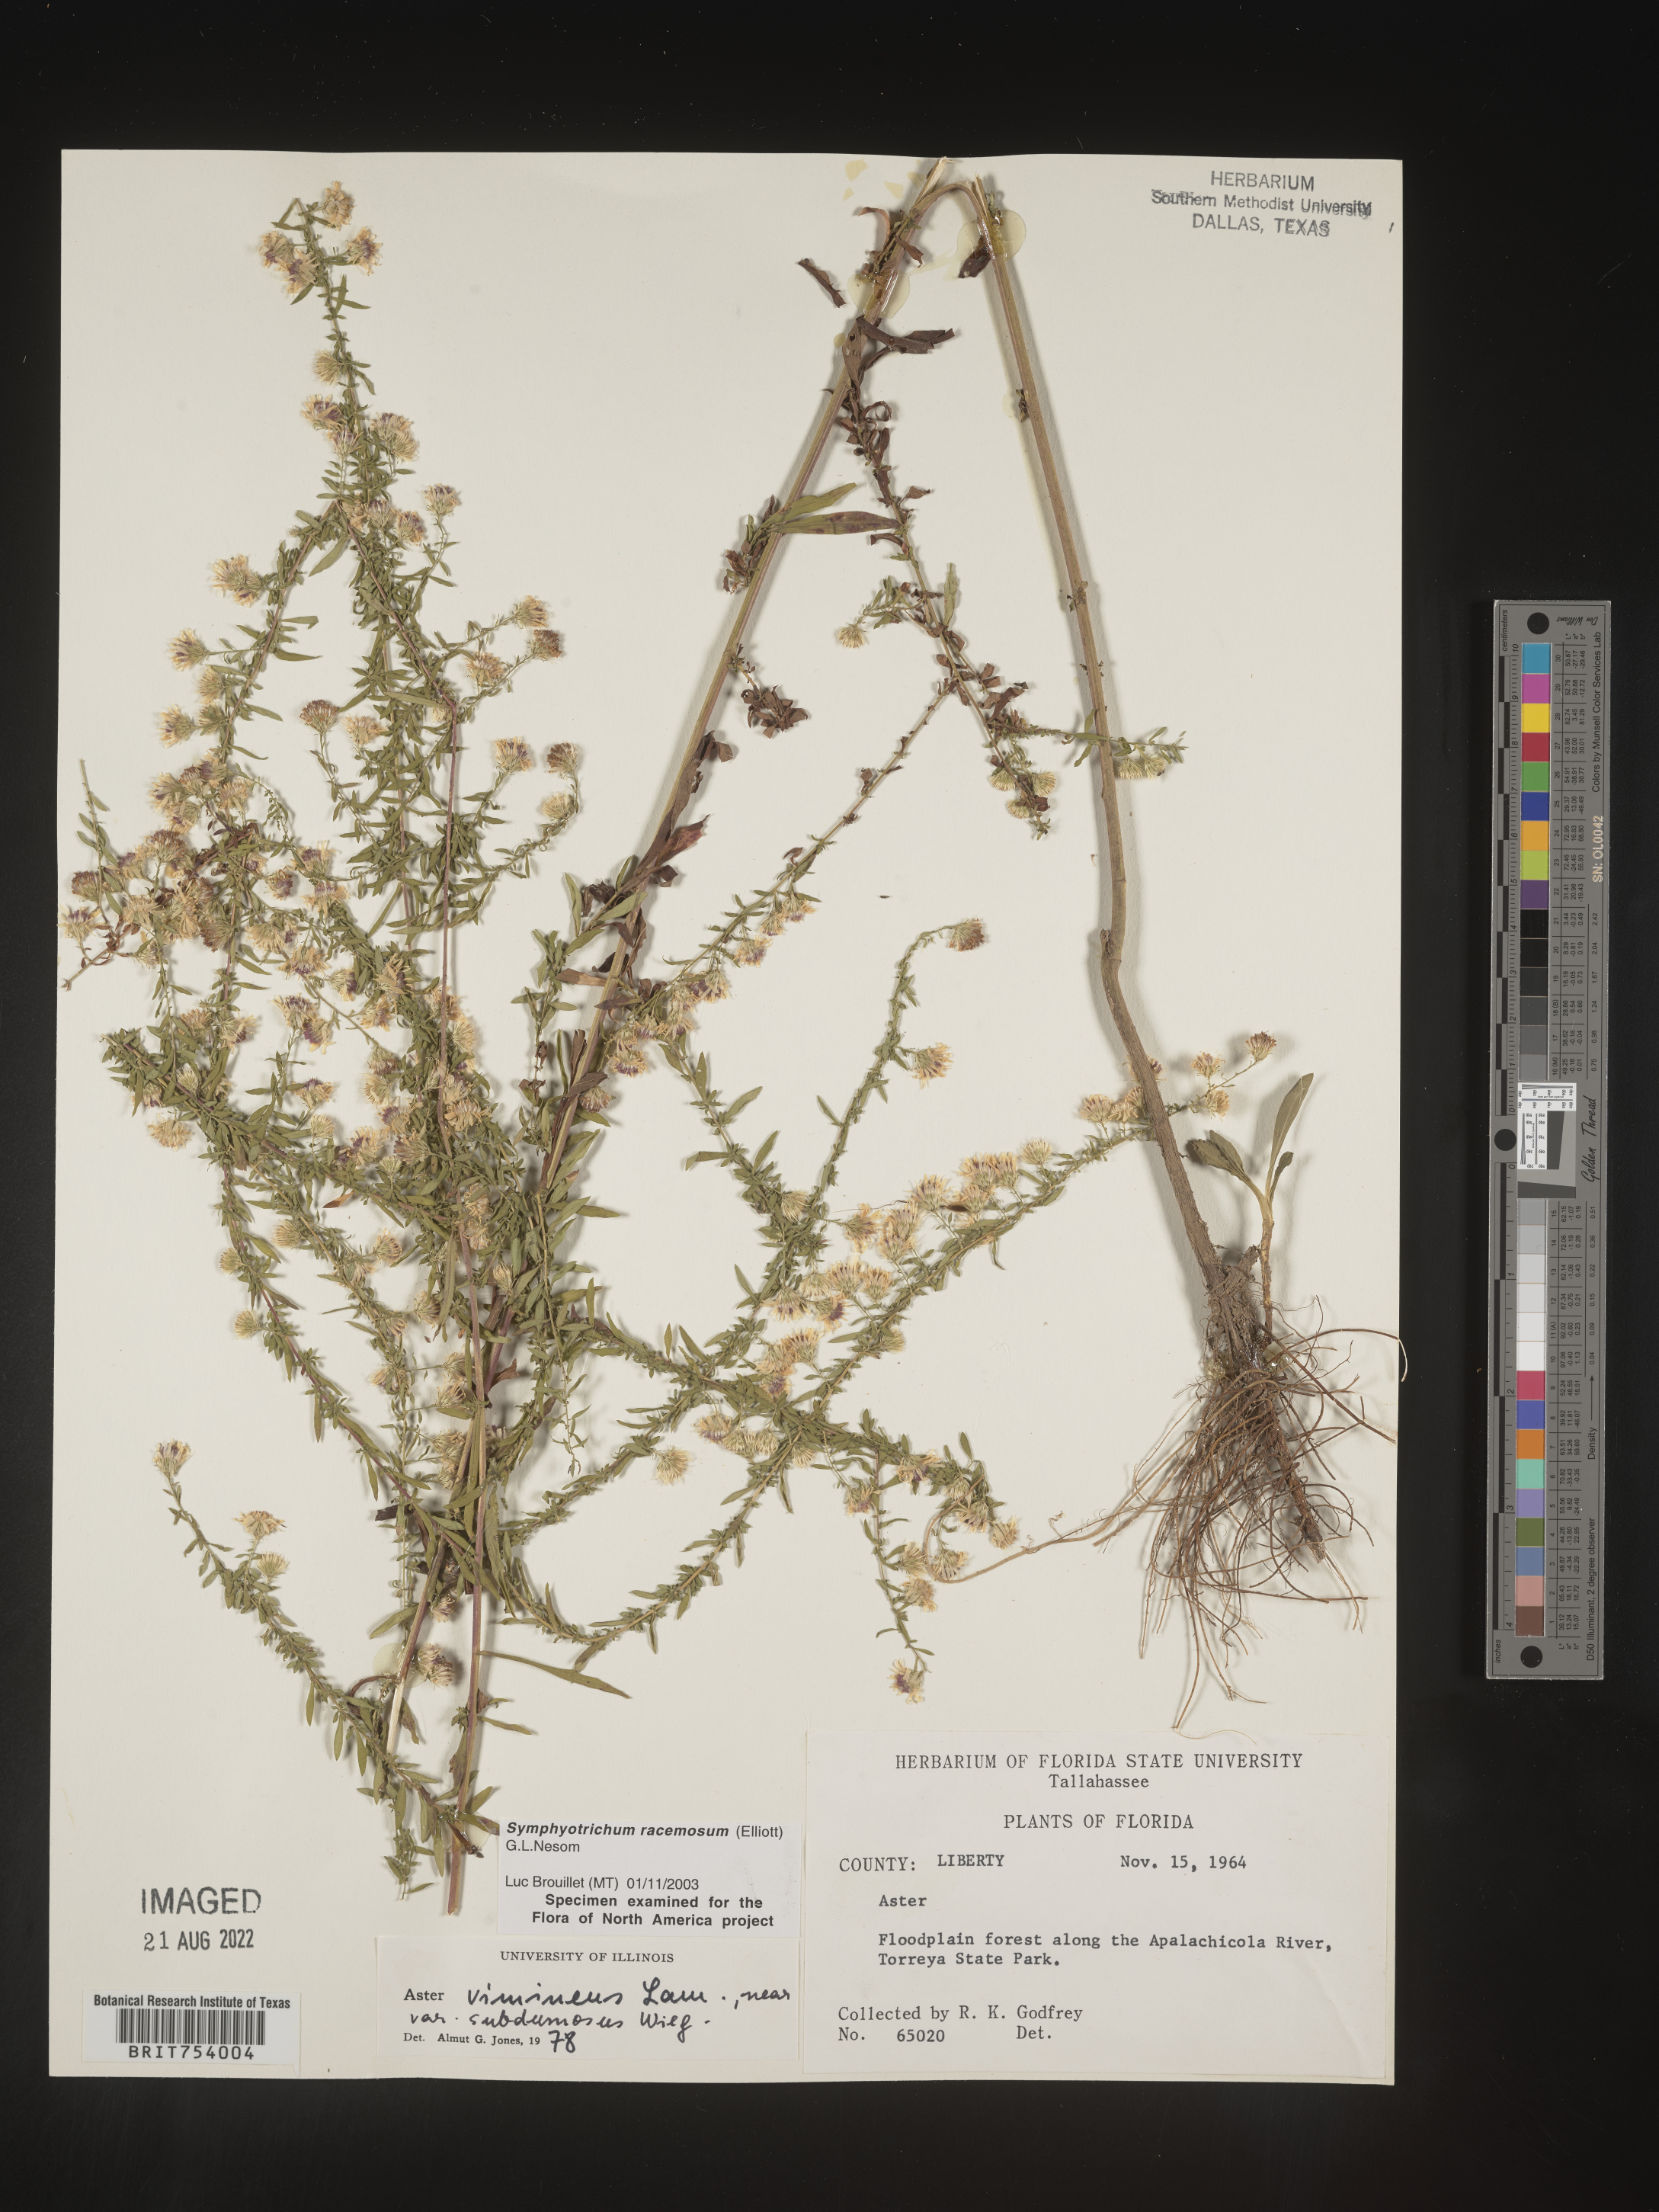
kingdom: Plantae
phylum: Tracheophyta
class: Magnoliopsida
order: Asterales
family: Asteraceae
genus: Symphyotrichum
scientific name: Symphyotrichum racemosum
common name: Small white aster
